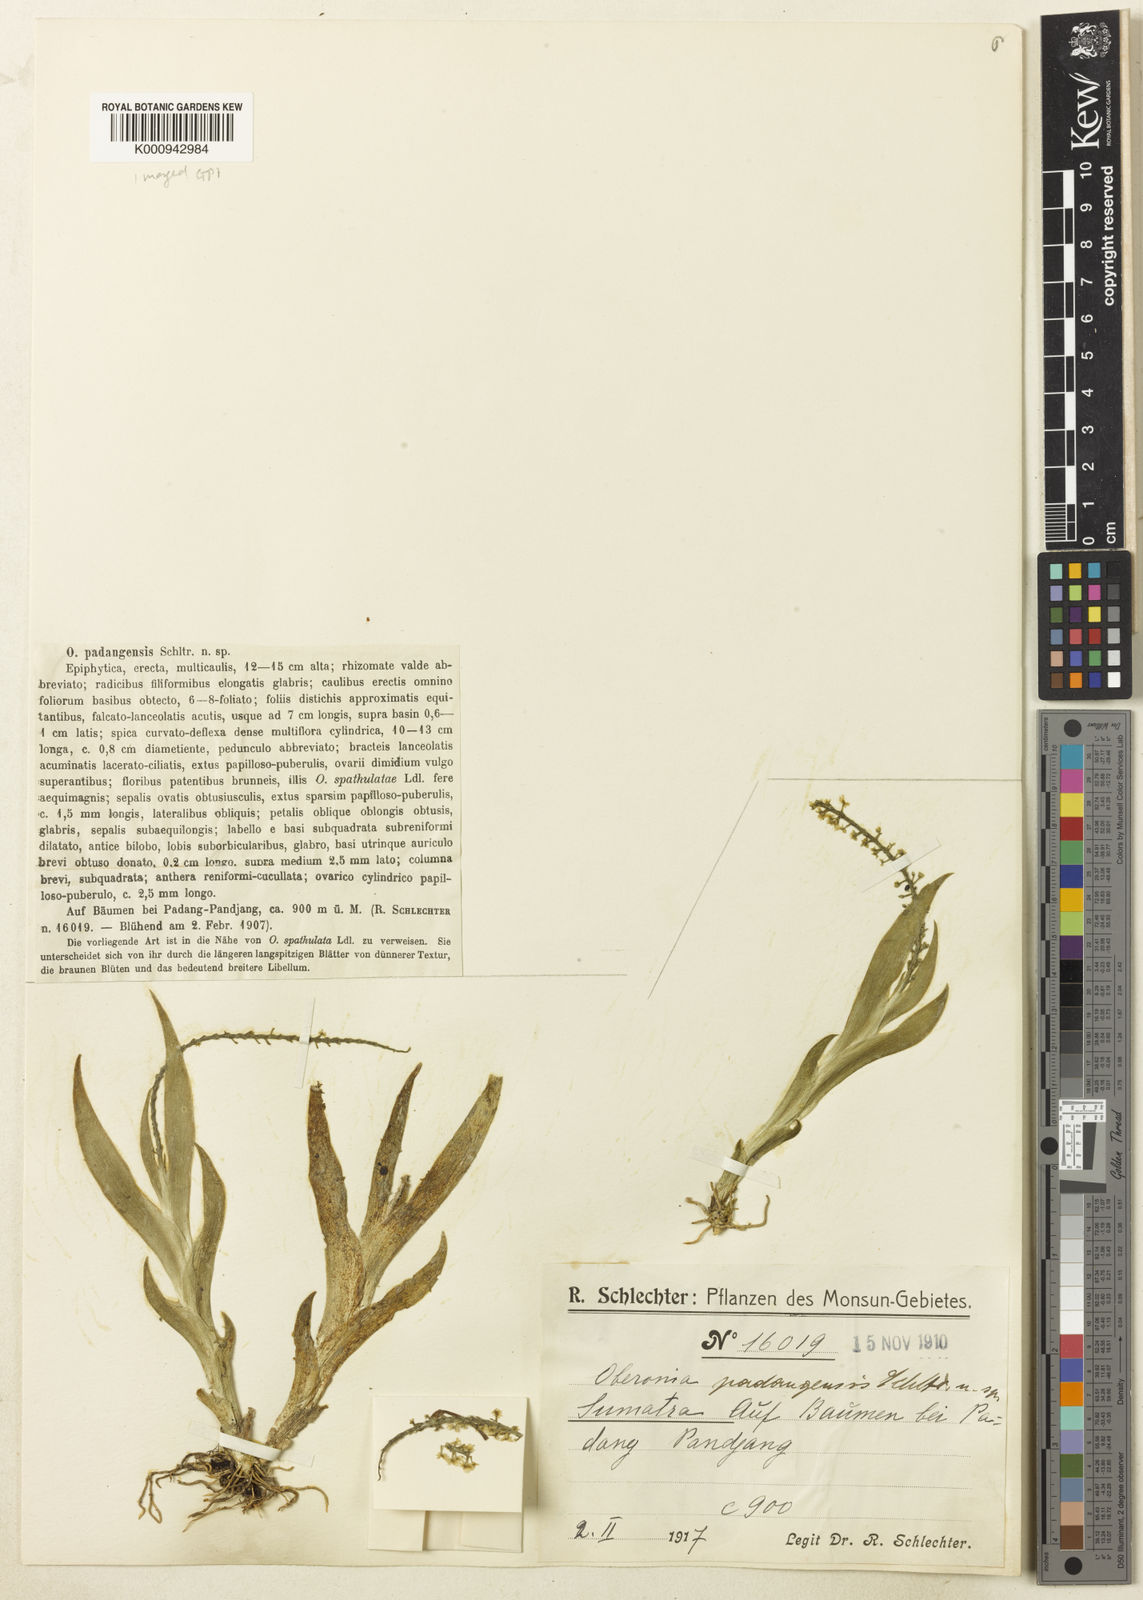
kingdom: Plantae
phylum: Tracheophyta
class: Liliopsida
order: Asparagales
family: Orchidaceae
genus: Oberonia
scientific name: Oberonia padangensis
